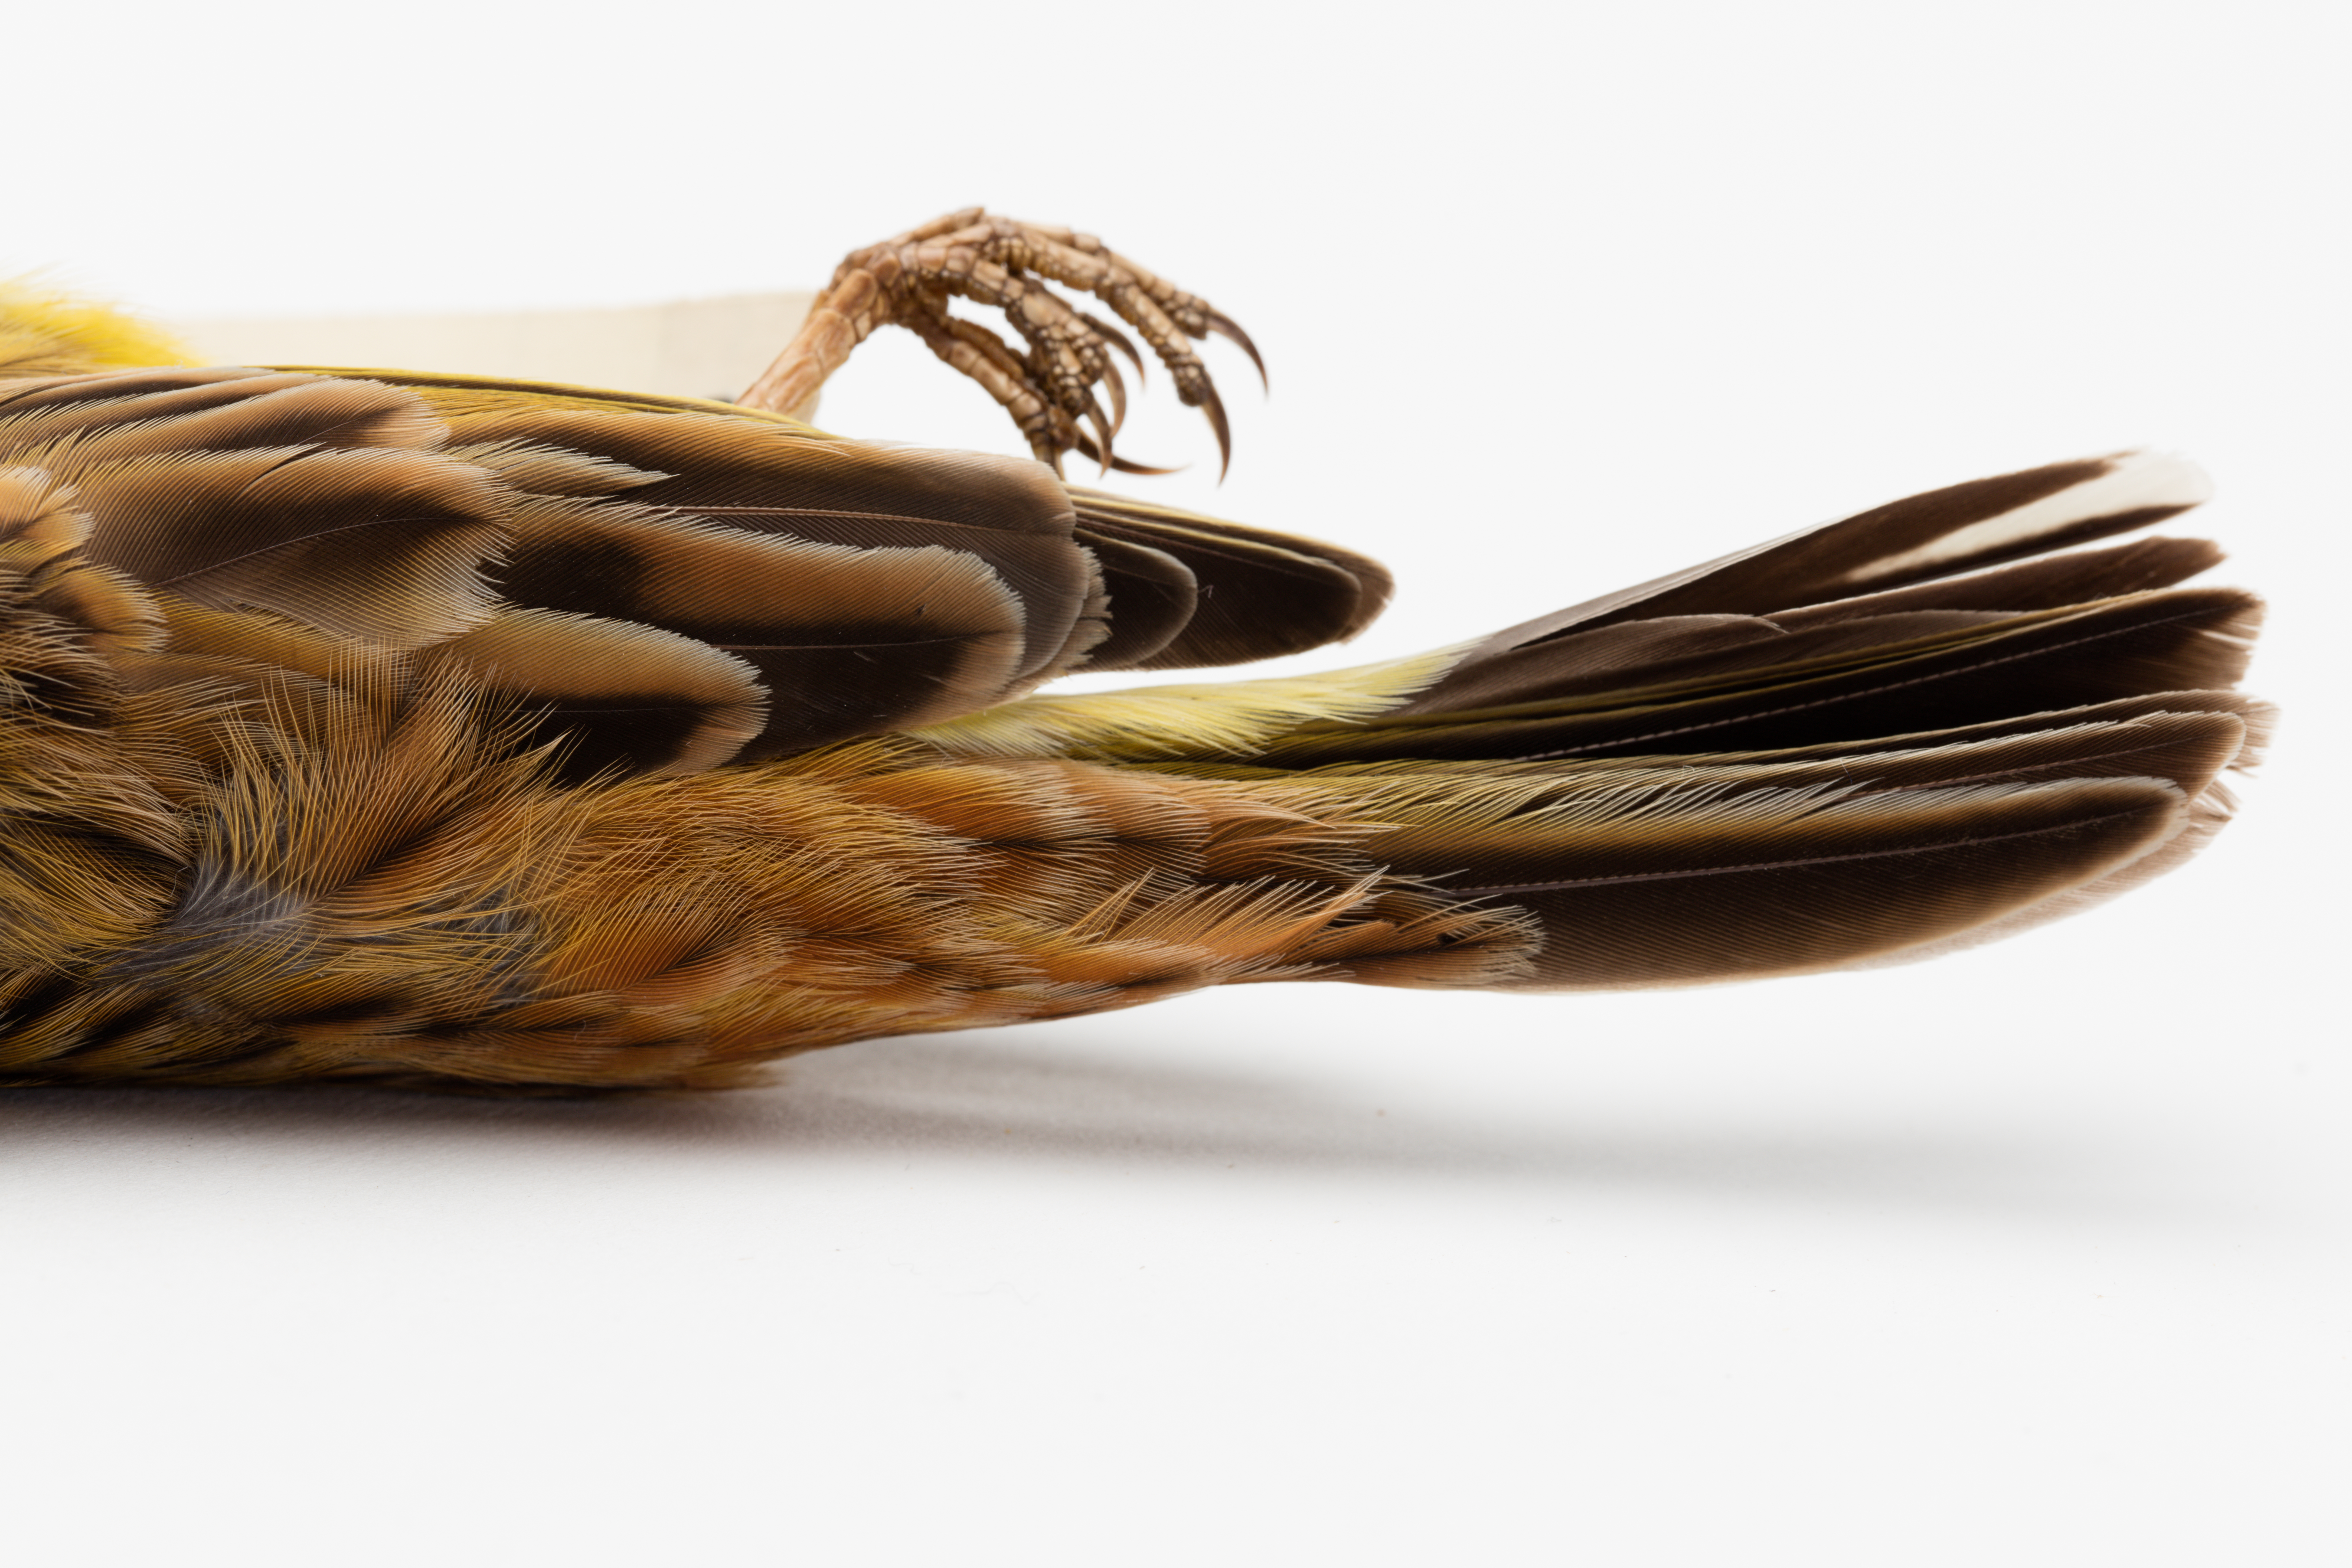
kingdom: Animalia
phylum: Chordata
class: Aves
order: Passeriformes
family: Emberizidae
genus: Emberiza
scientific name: Emberiza citrinella
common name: Yellowhammer
